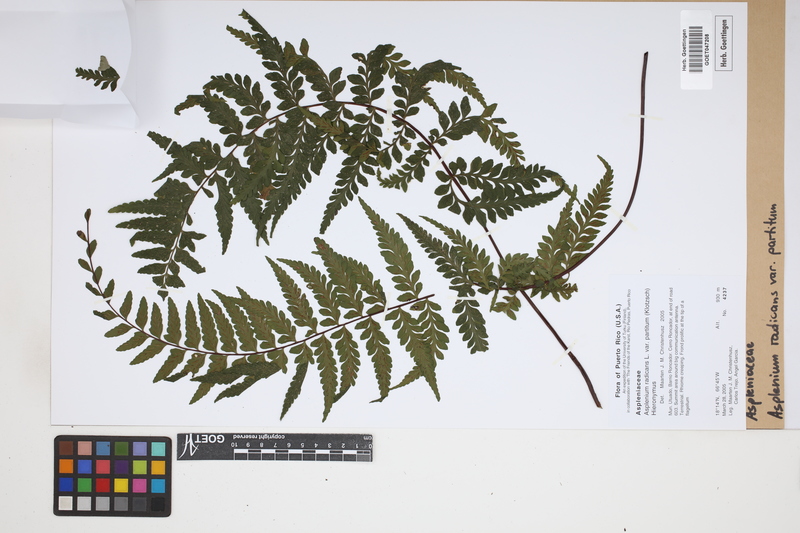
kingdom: Plantae
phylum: Tracheophyta
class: Polypodiopsida
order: Polypodiales
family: Aspleniaceae
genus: Asplenium
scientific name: Asplenium flabellulatum
